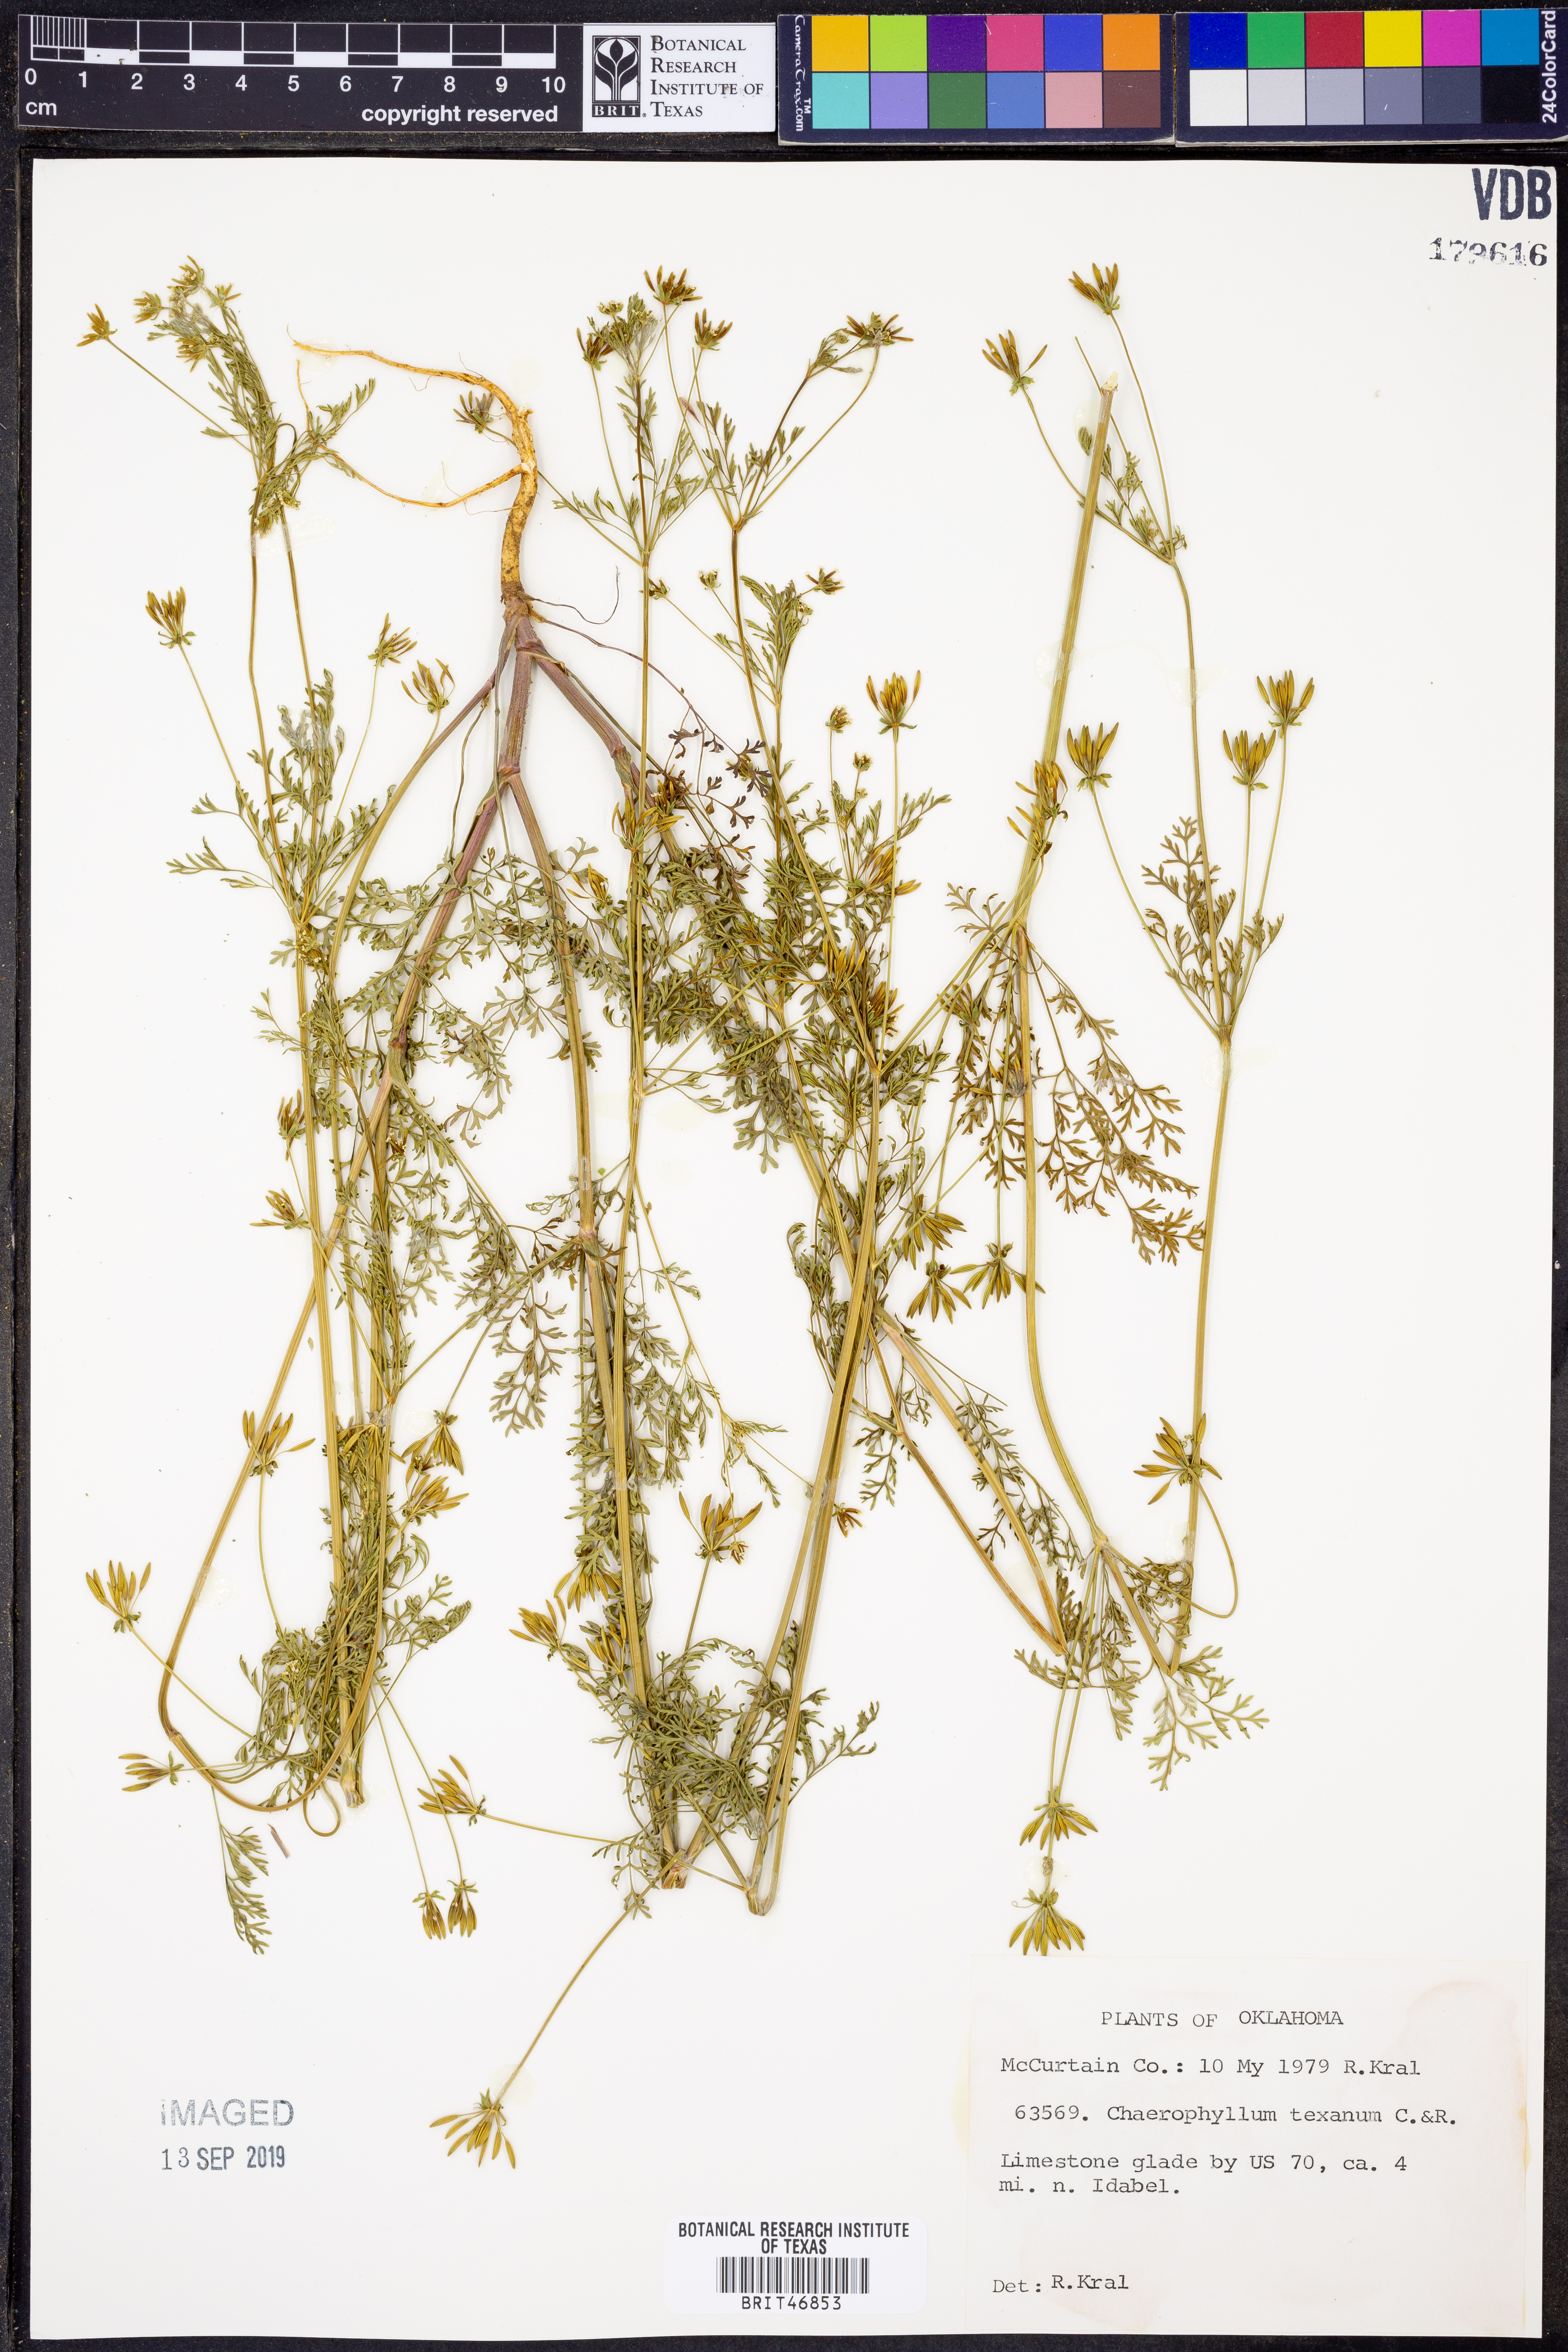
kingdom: Plantae
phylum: Tracheophyta
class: Magnoliopsida
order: Apiales
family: Apiaceae
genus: Chaerophyllum
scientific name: Chaerophyllum tainturieri
